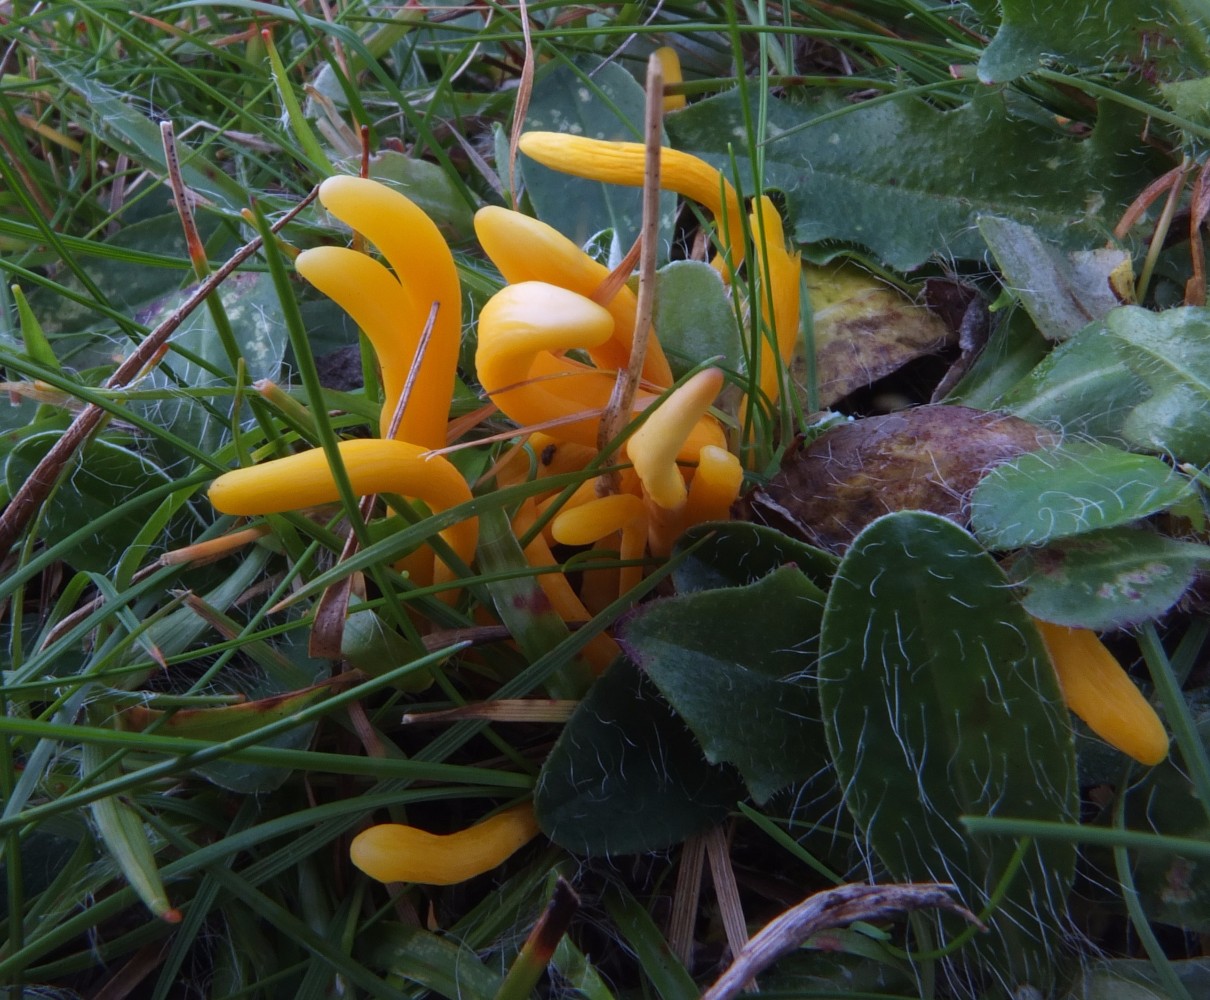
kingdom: Fungi
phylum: Basidiomycota
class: Agaricomycetes
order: Agaricales
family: Clavariaceae
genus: Clavulinopsis
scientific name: Clavulinopsis helvola
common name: orangegul køllesvamp
